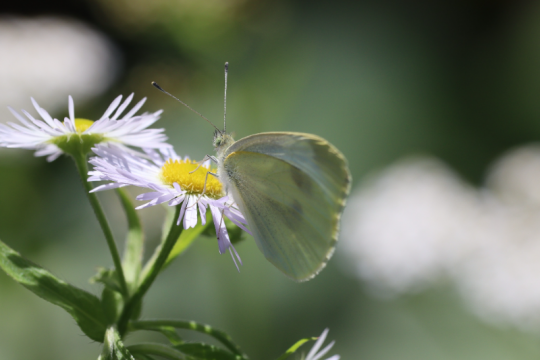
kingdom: Animalia
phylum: Arthropoda
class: Insecta
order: Lepidoptera
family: Pieridae
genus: Pieris
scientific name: Pieris rapae
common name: Cabbage White
